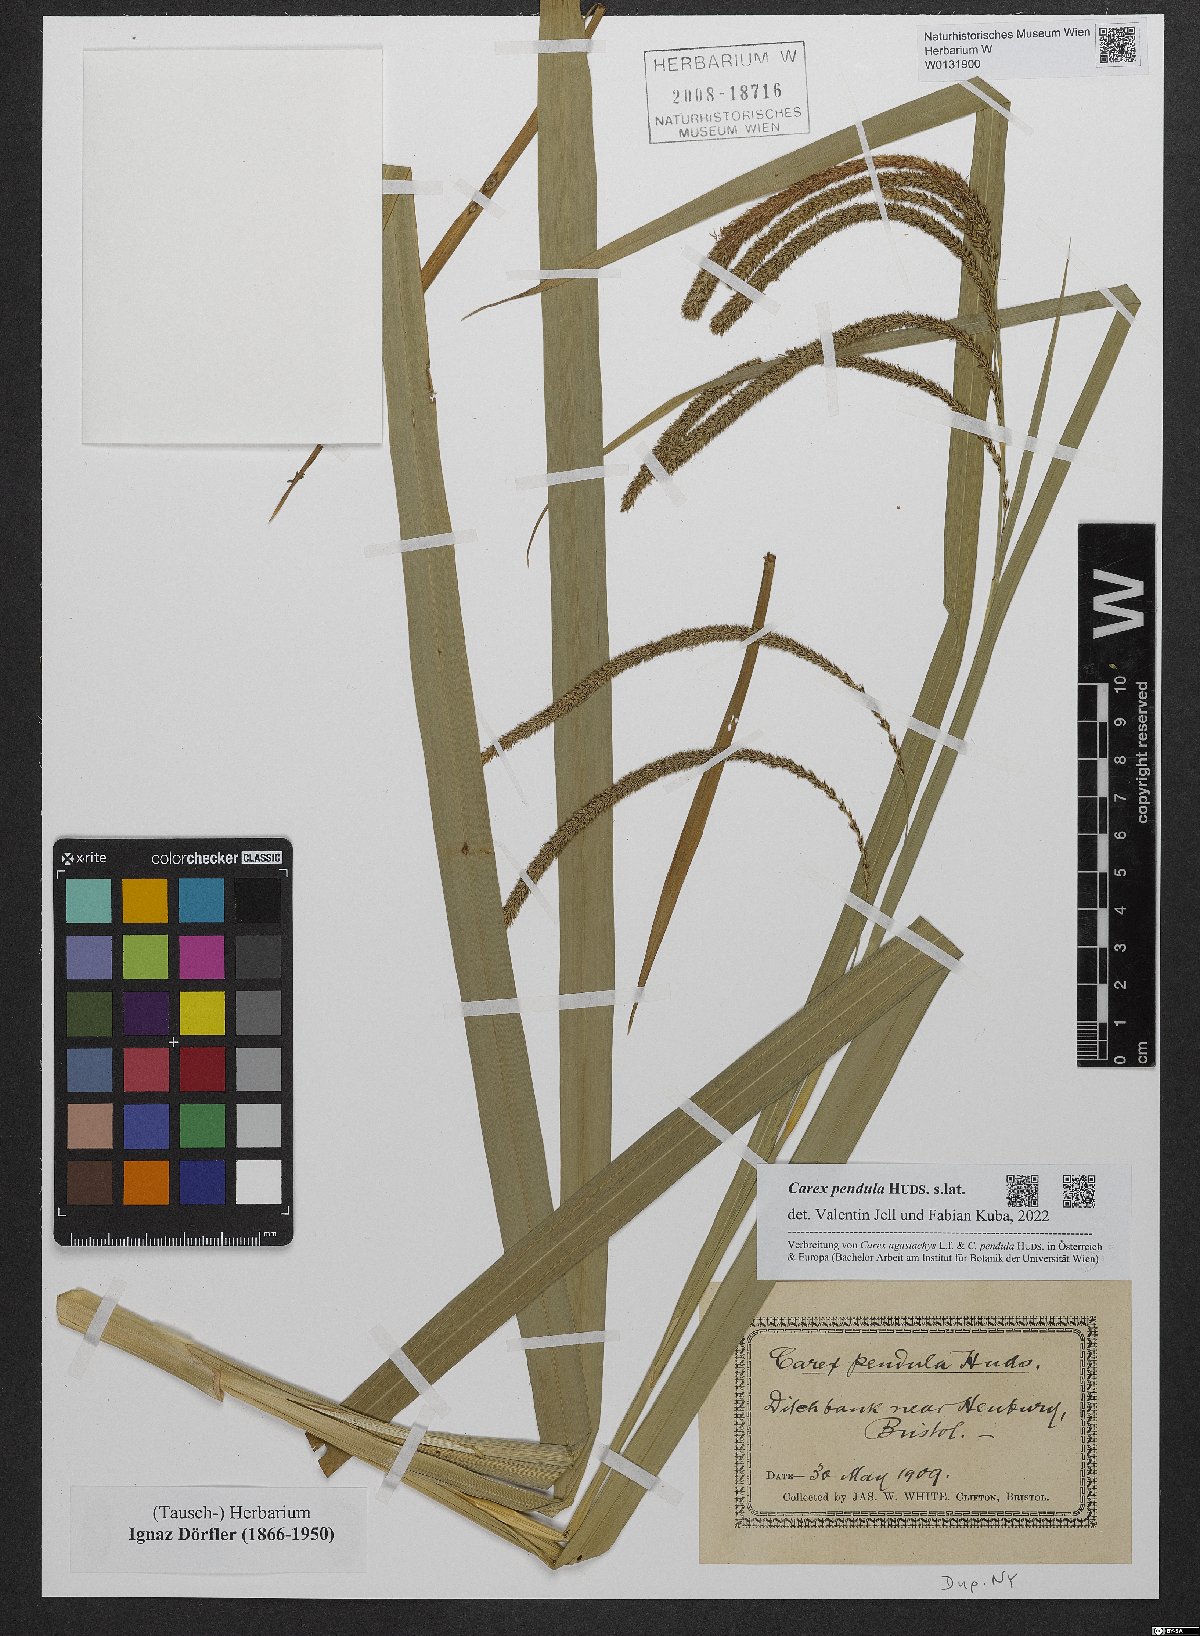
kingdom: Plantae
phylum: Tracheophyta
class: Liliopsida
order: Poales
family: Cyperaceae
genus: Carex
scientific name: Carex pendula
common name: Pendulous sedge
